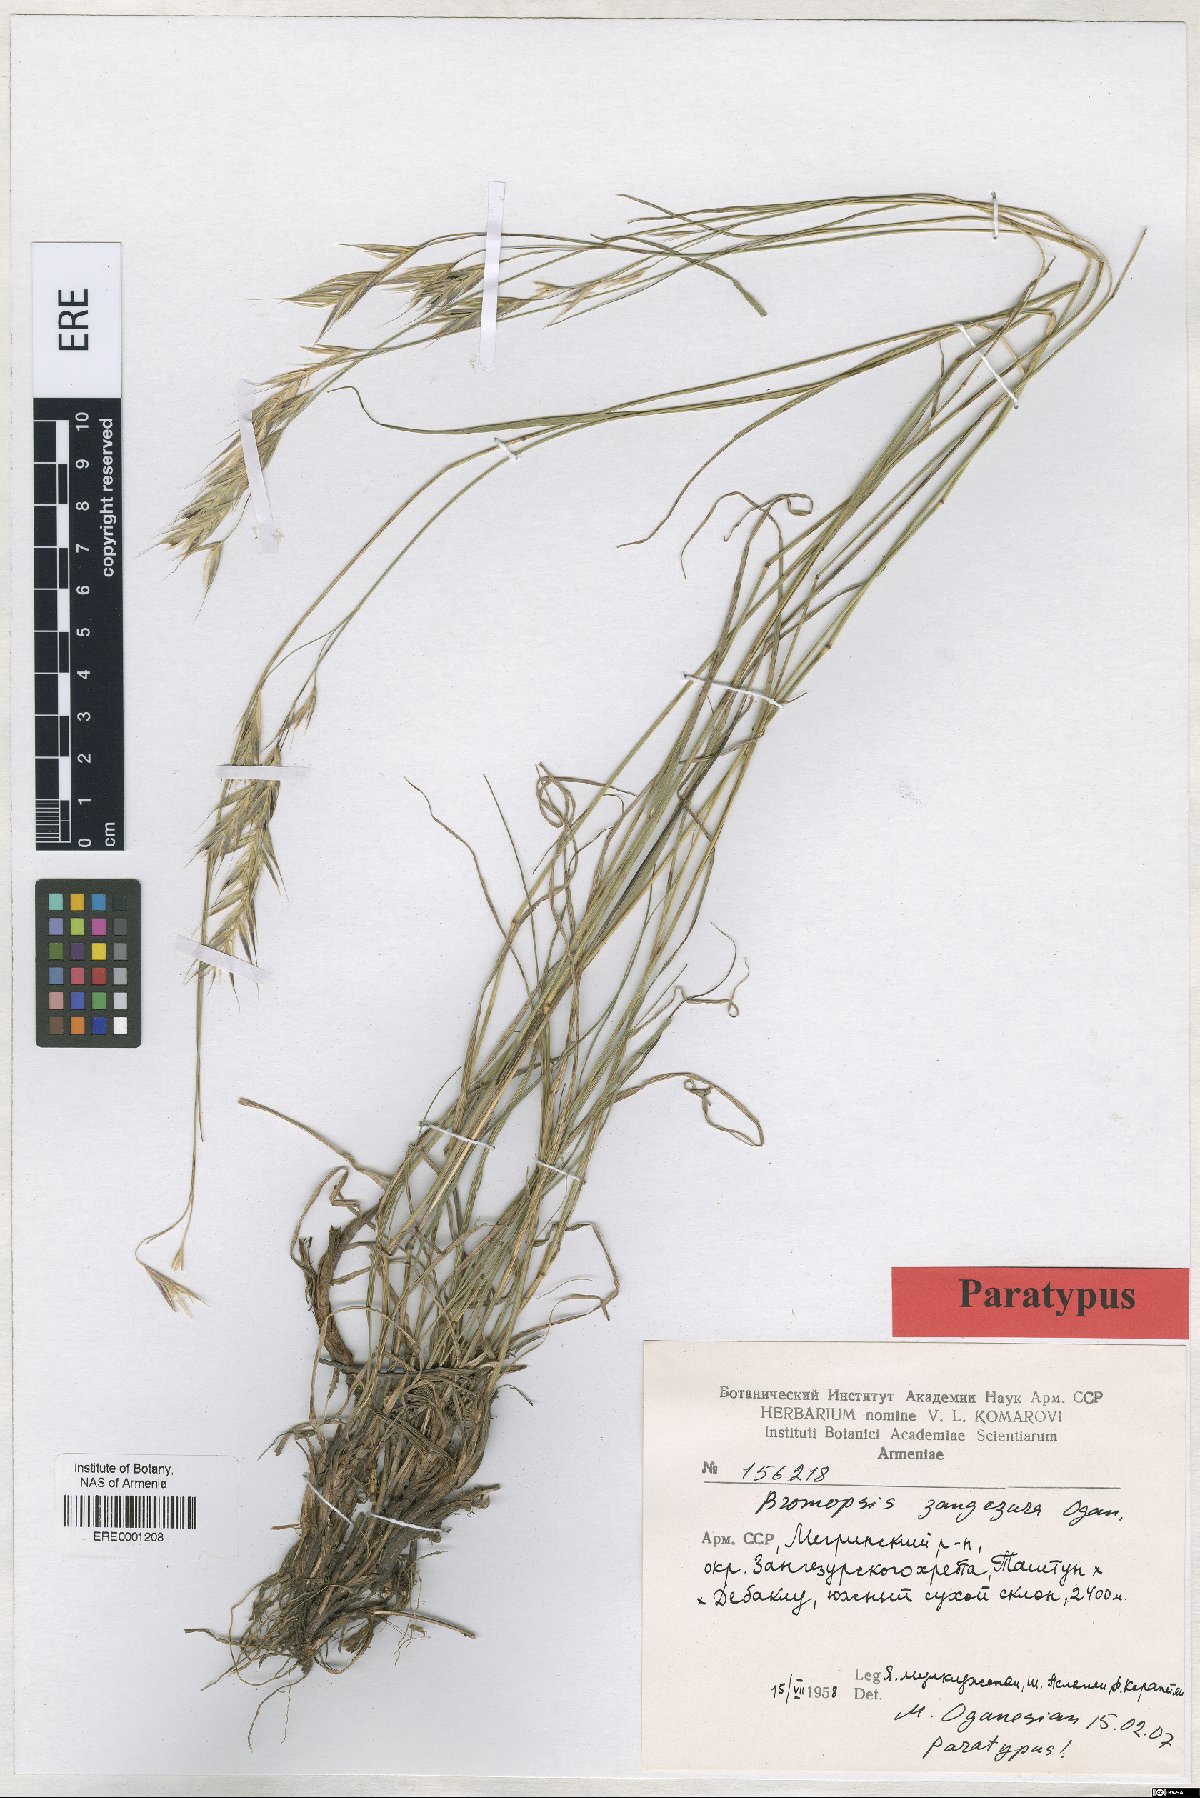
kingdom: Plantae
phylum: Tracheophyta
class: Liliopsida
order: Poales
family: Poaceae
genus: Bromus
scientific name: Bromus erectus
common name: Erect brome
